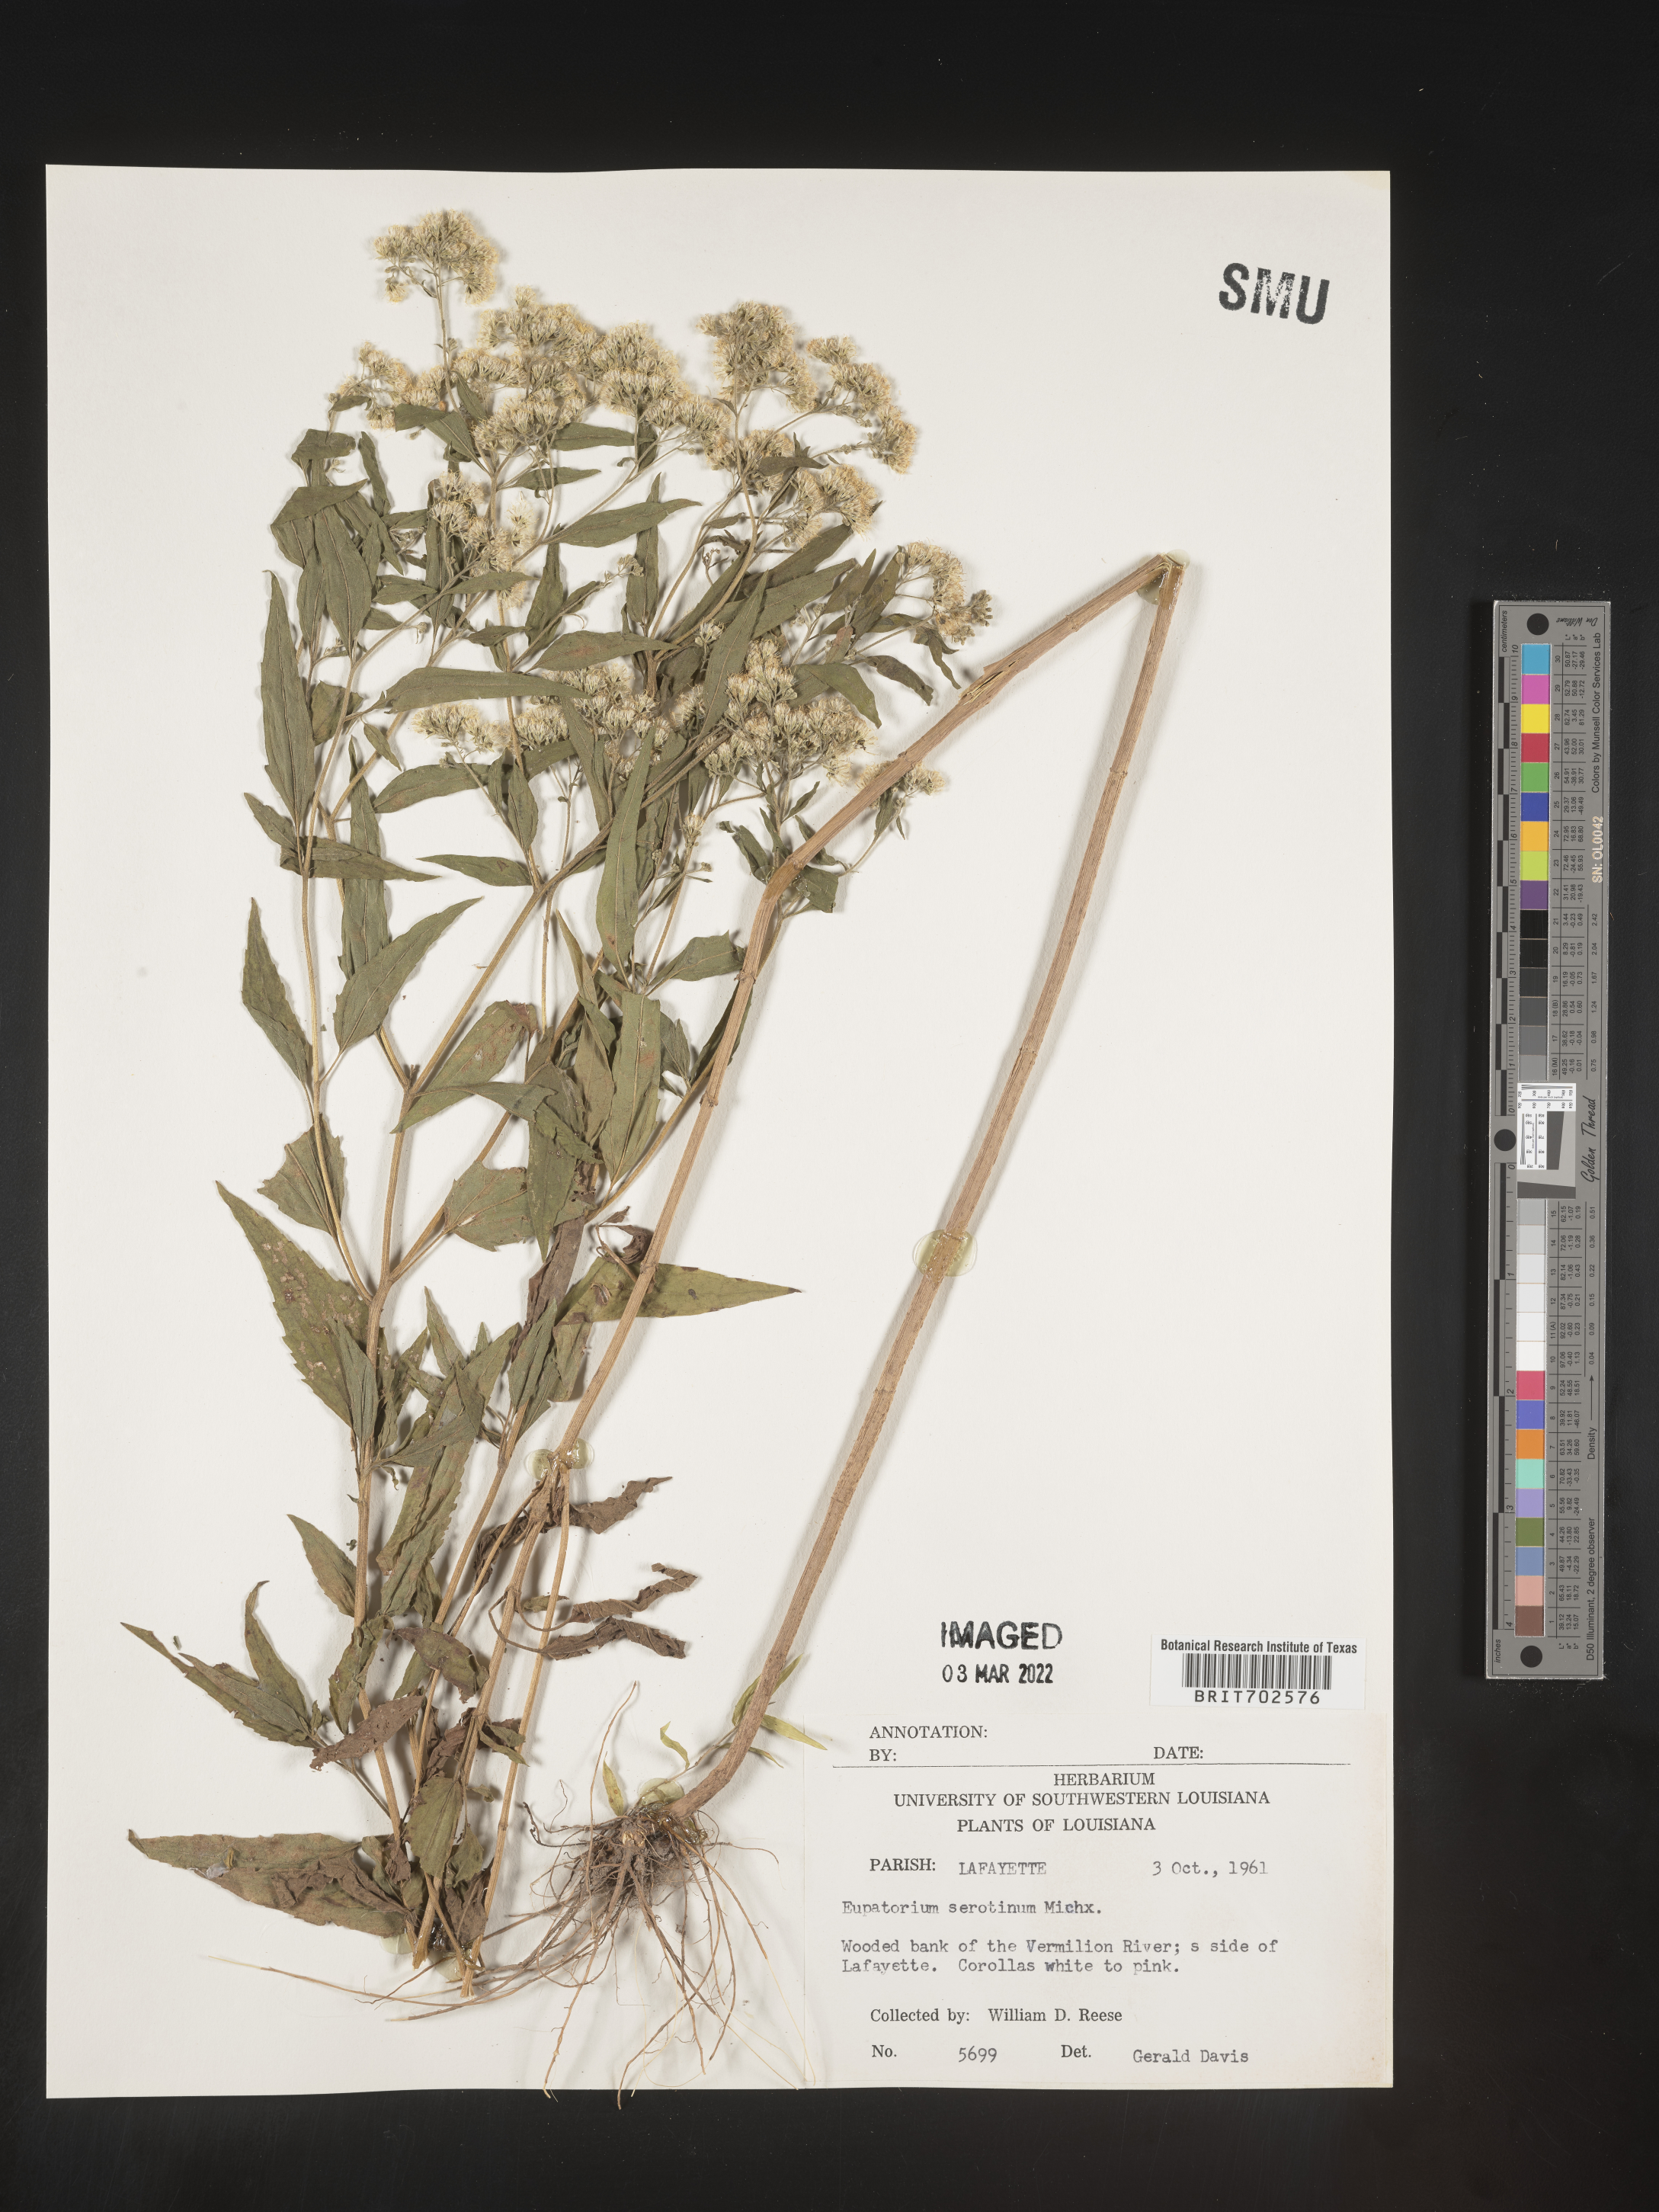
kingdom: Plantae
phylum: Tracheophyta
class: Magnoliopsida
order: Asterales
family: Asteraceae
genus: Eupatorium
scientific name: Eupatorium serotinum
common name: Late boneset
